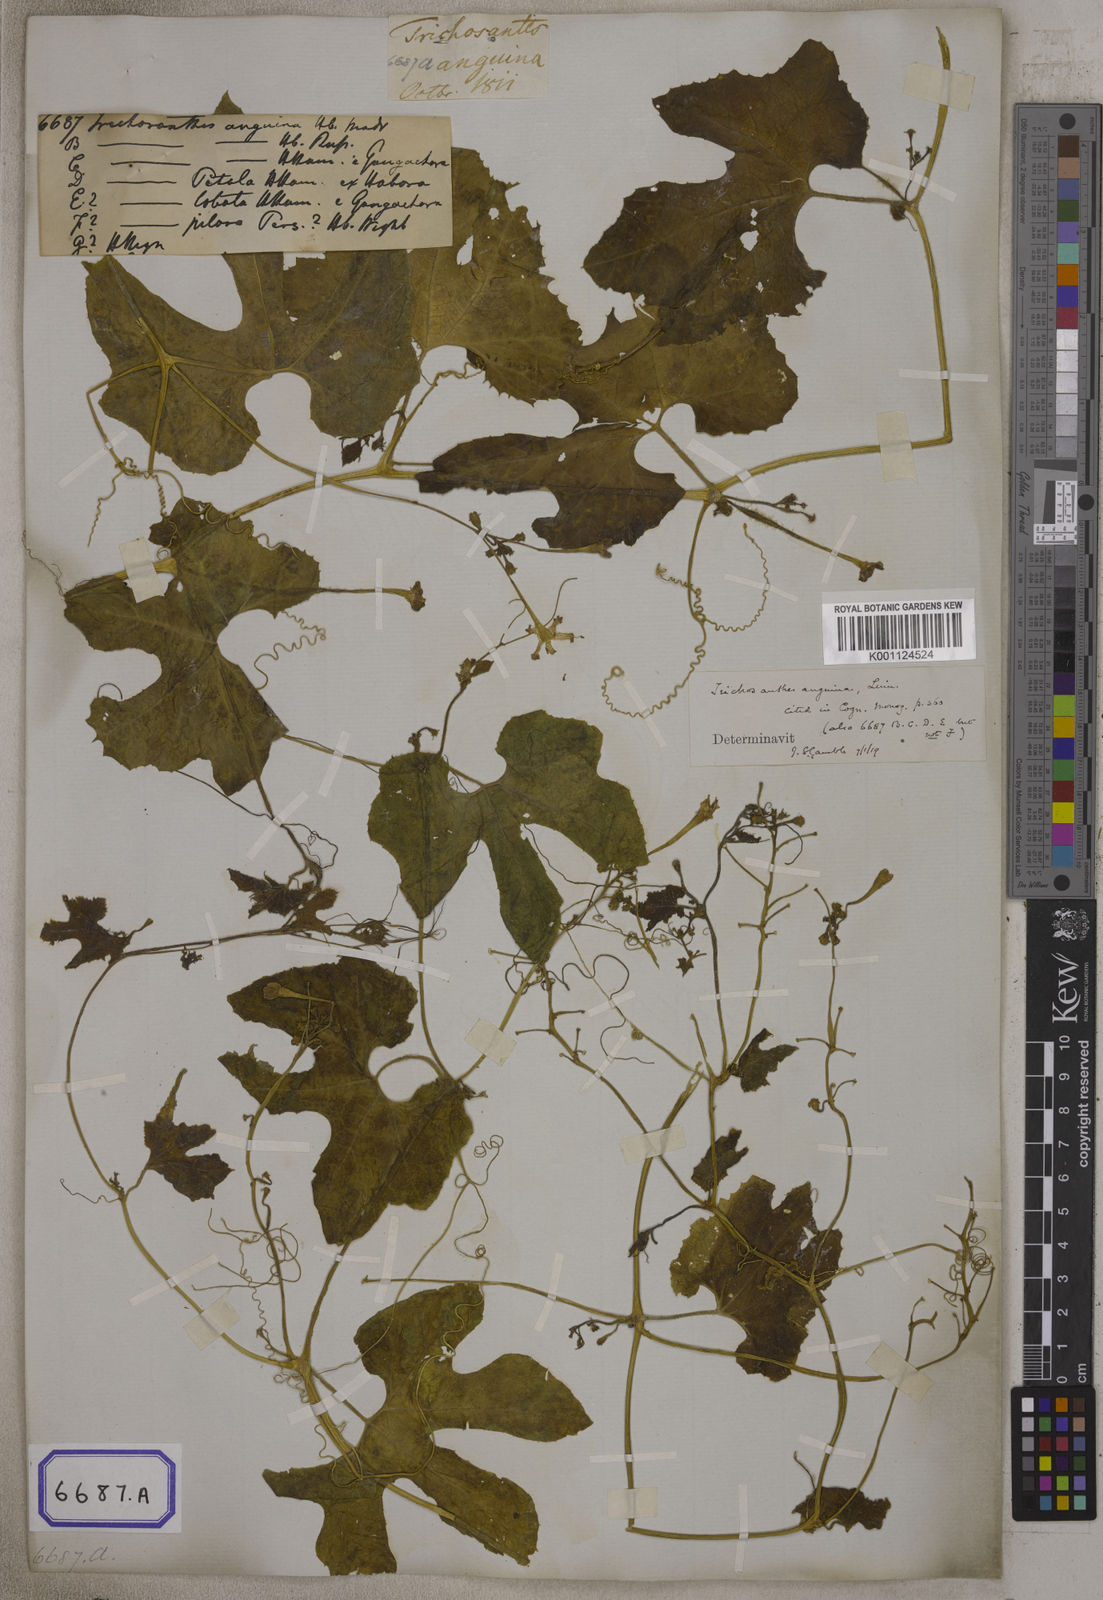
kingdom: Plantae
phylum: Tracheophyta
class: Magnoliopsida
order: Cucurbitales
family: Cucurbitaceae
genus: Trichosanthes
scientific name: Trichosanthes cucumerina
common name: Snakegourd
